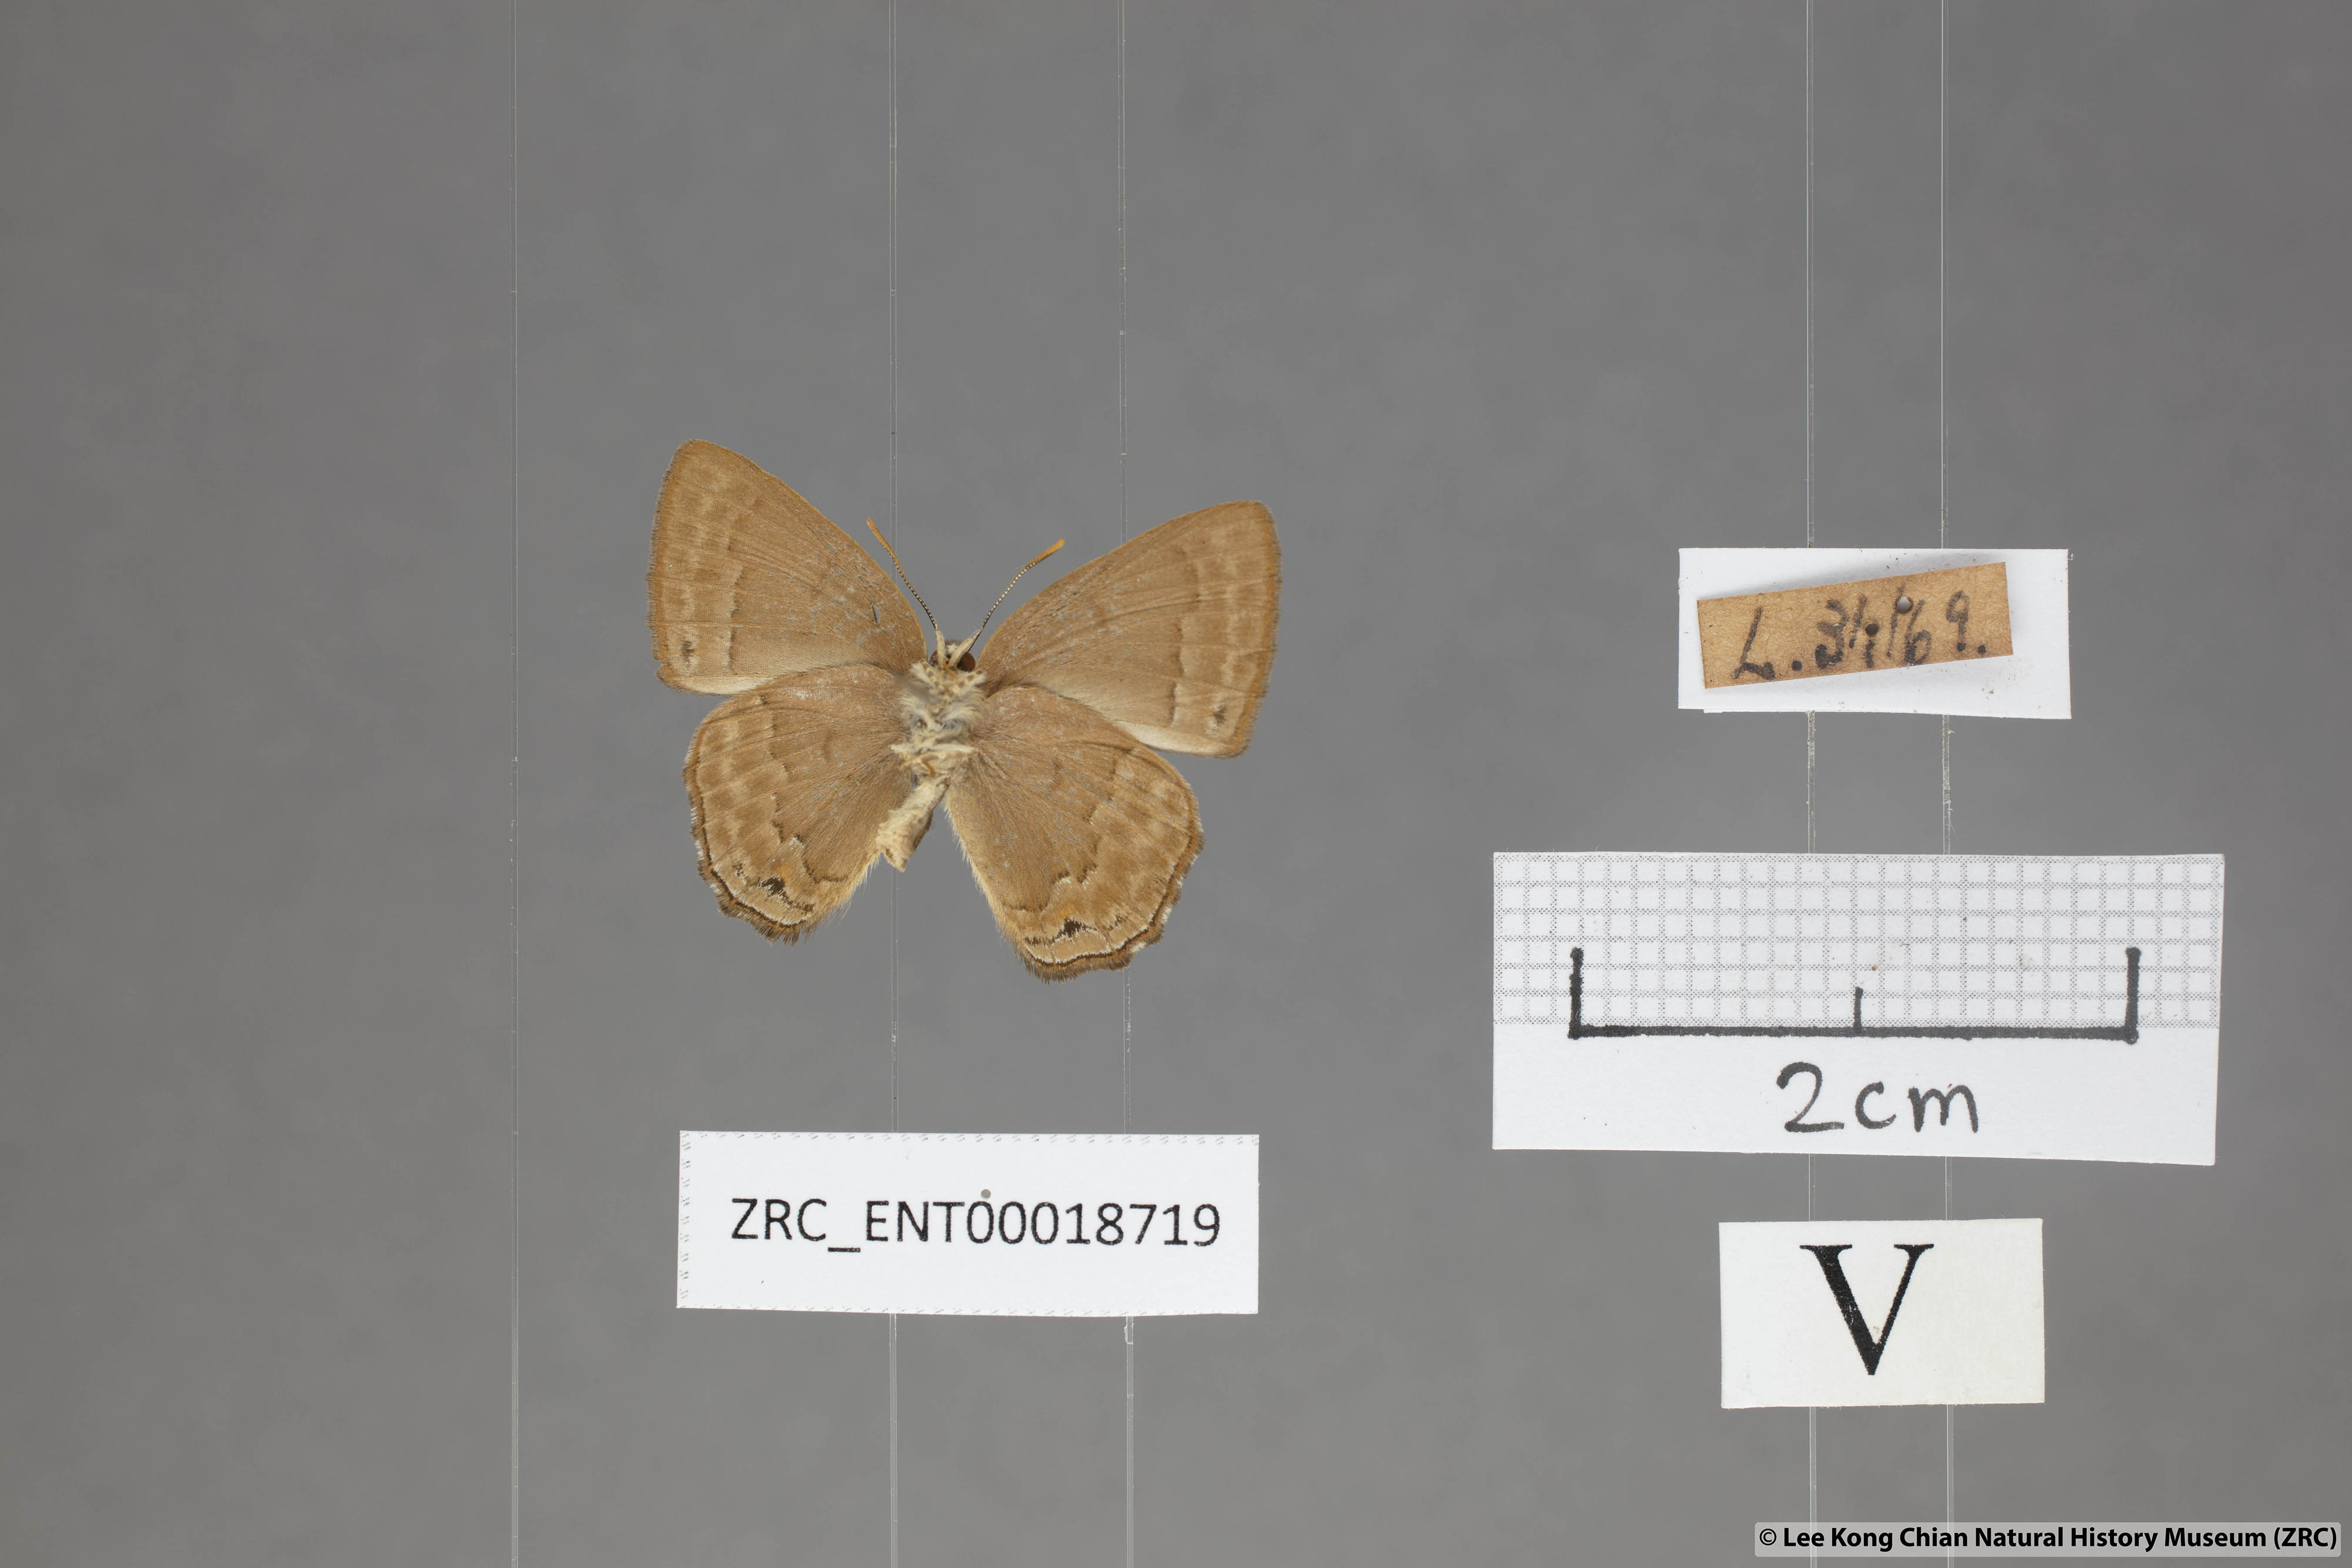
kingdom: Animalia
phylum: Arthropoda
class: Insecta
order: Lepidoptera
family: Lycaenidae
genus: Deramas
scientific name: Deramas livena
